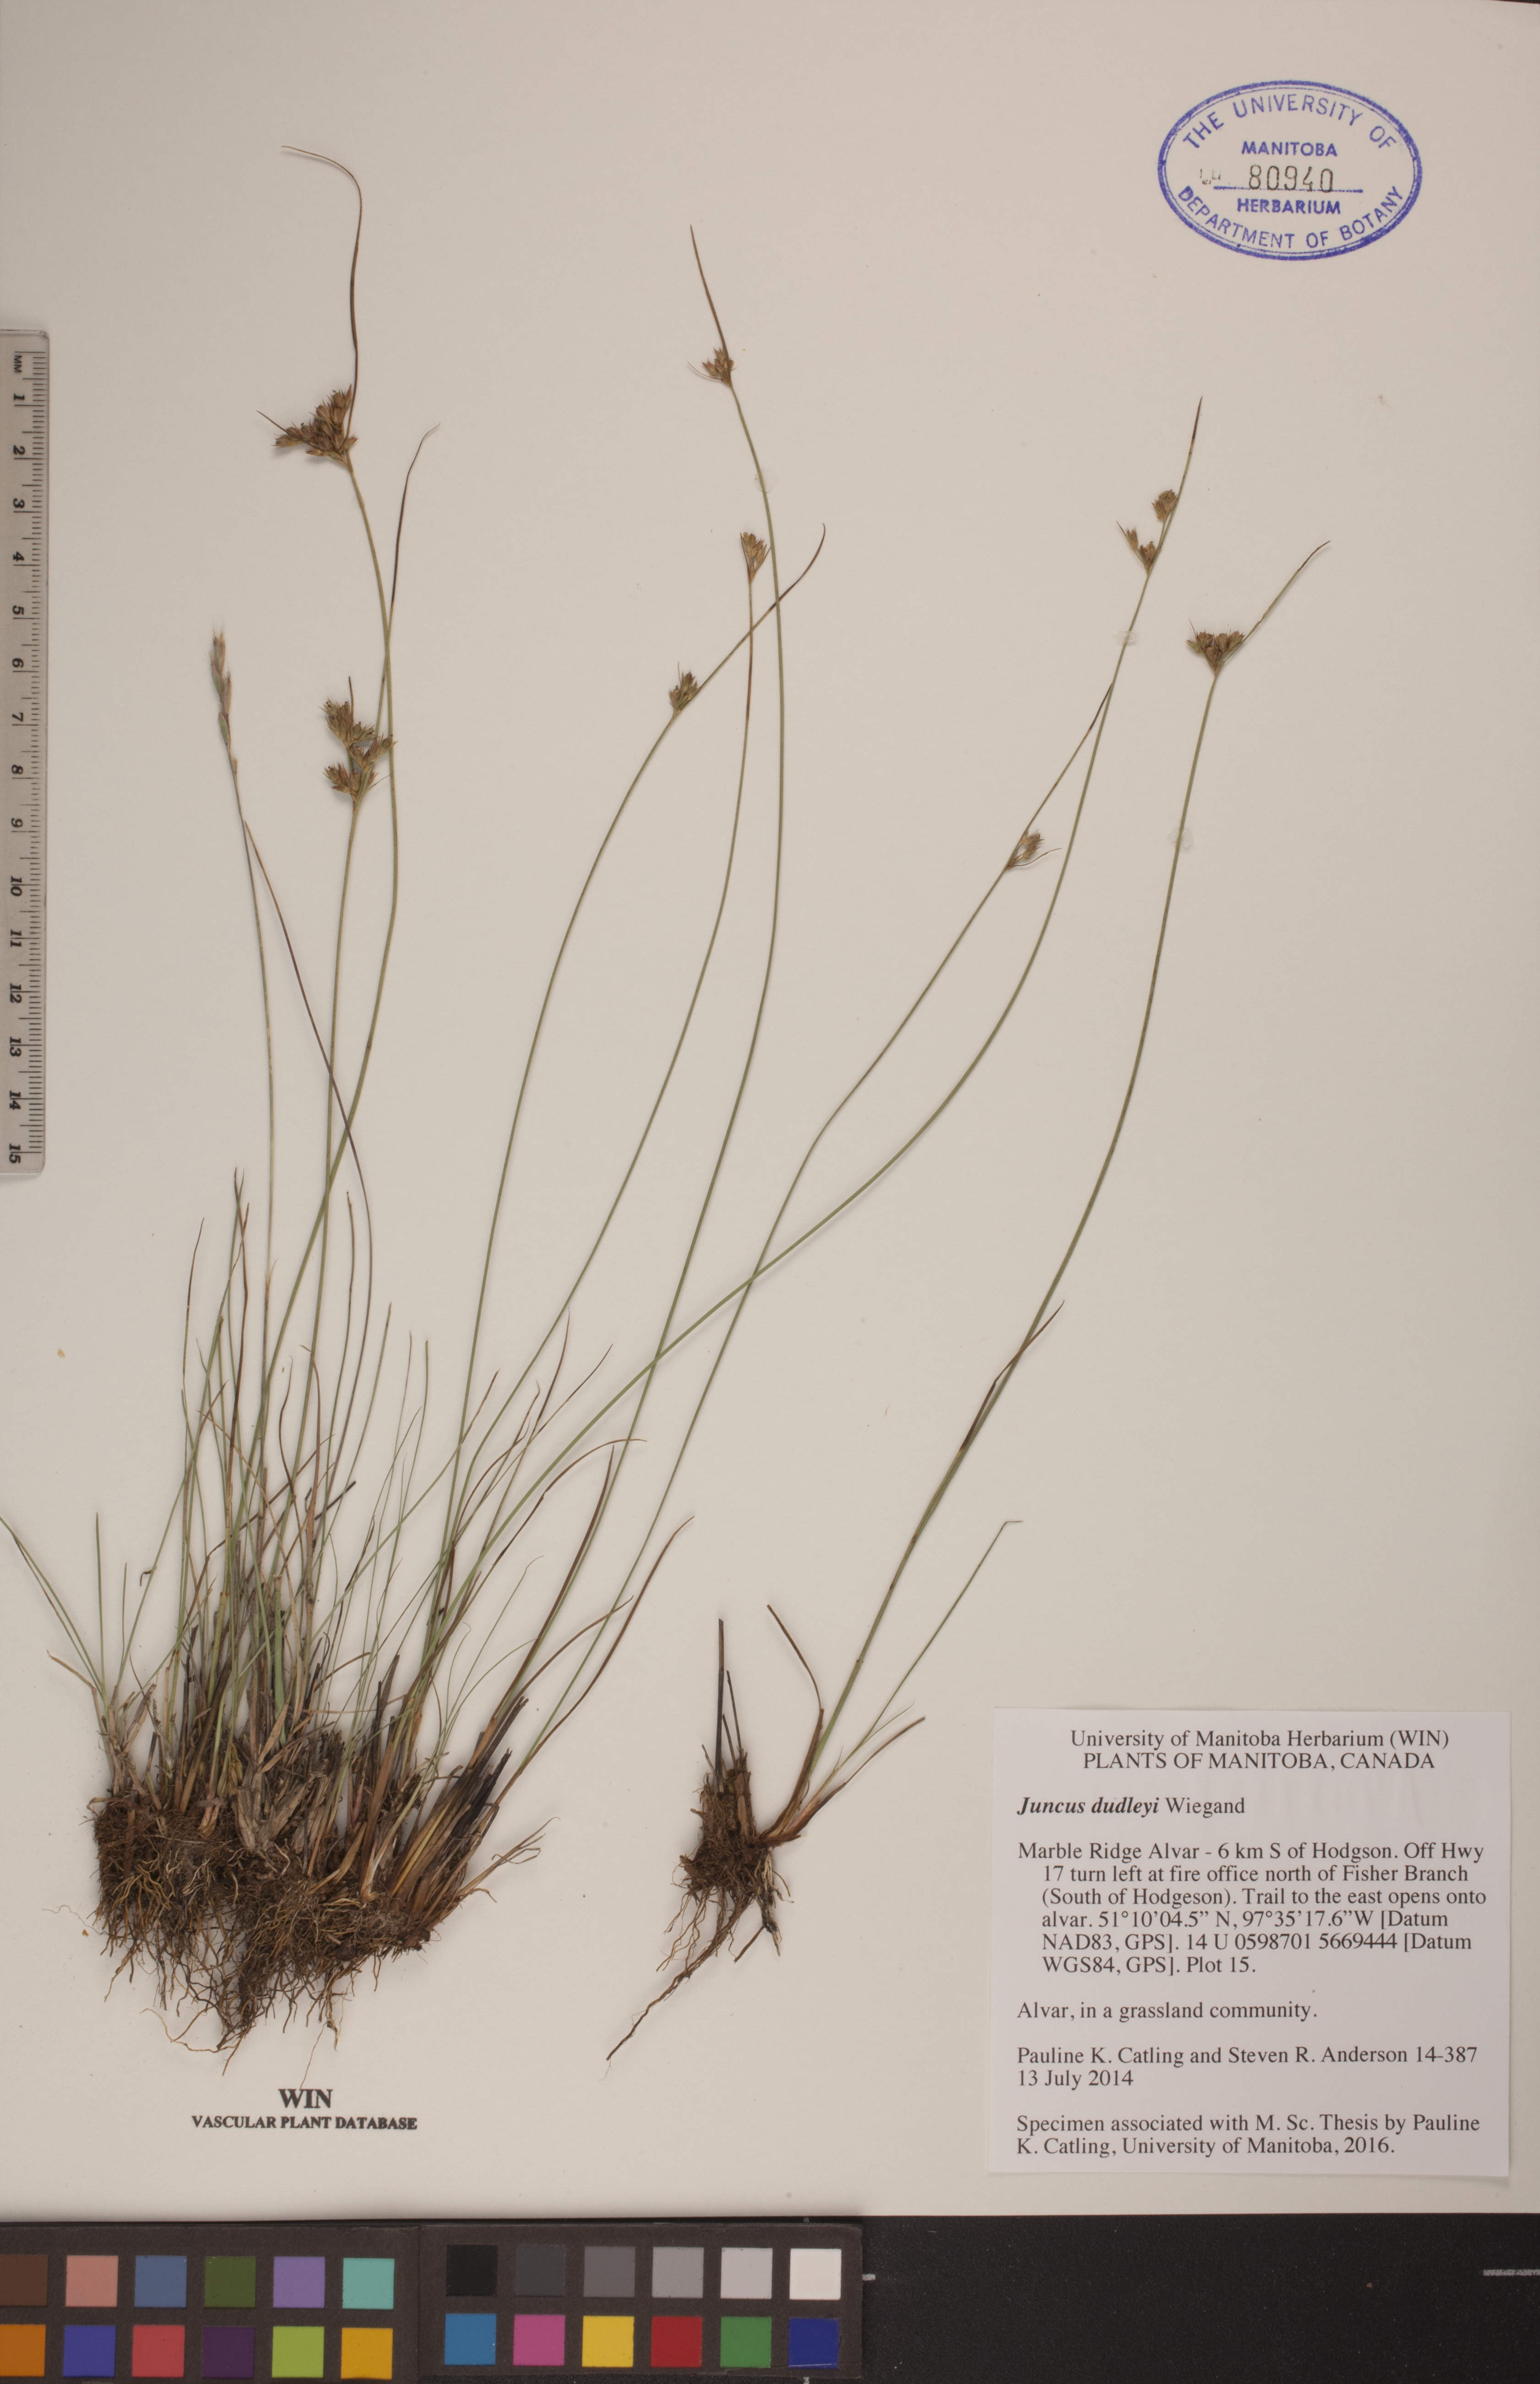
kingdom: Plantae
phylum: Tracheophyta
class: Liliopsida
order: Poales
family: Juncaceae
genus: Juncus
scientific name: Juncus dudleyi
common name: Dudley's rush
